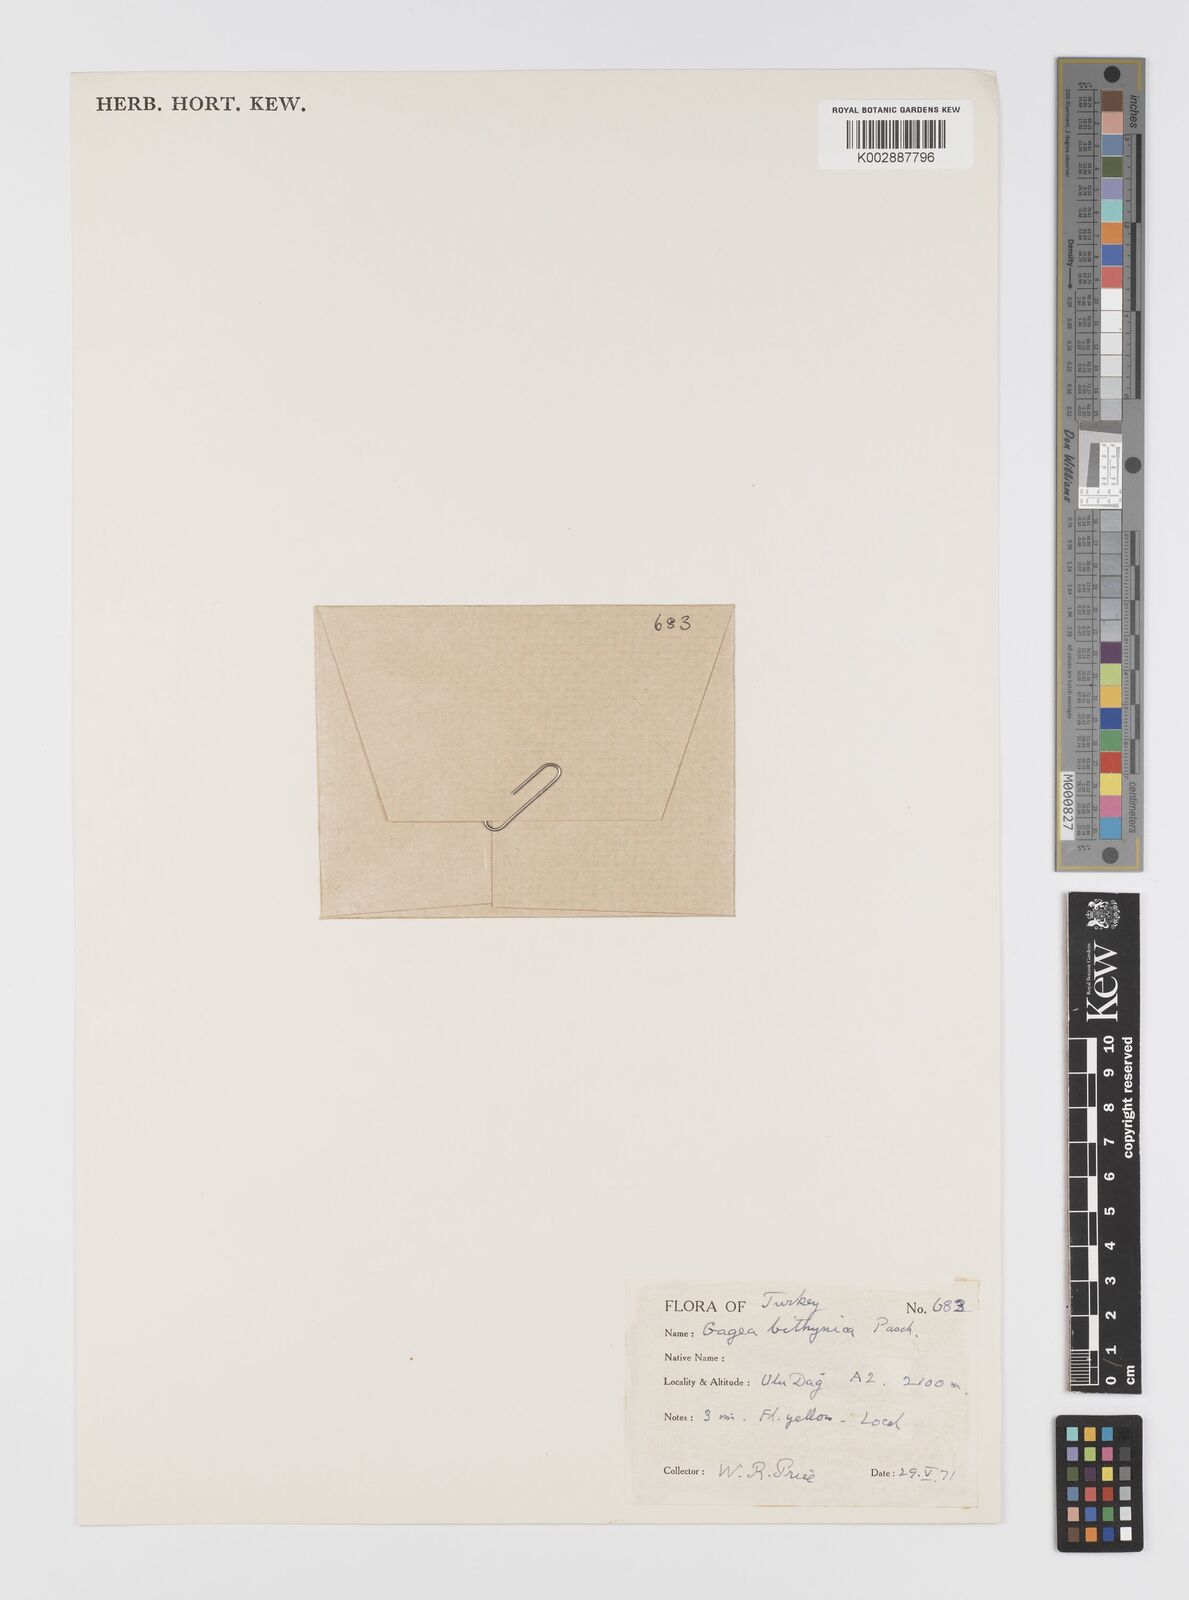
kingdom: Plantae
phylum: Tracheophyta
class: Liliopsida
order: Liliales
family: Liliaceae
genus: Gagea
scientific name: Gagea bithynica
